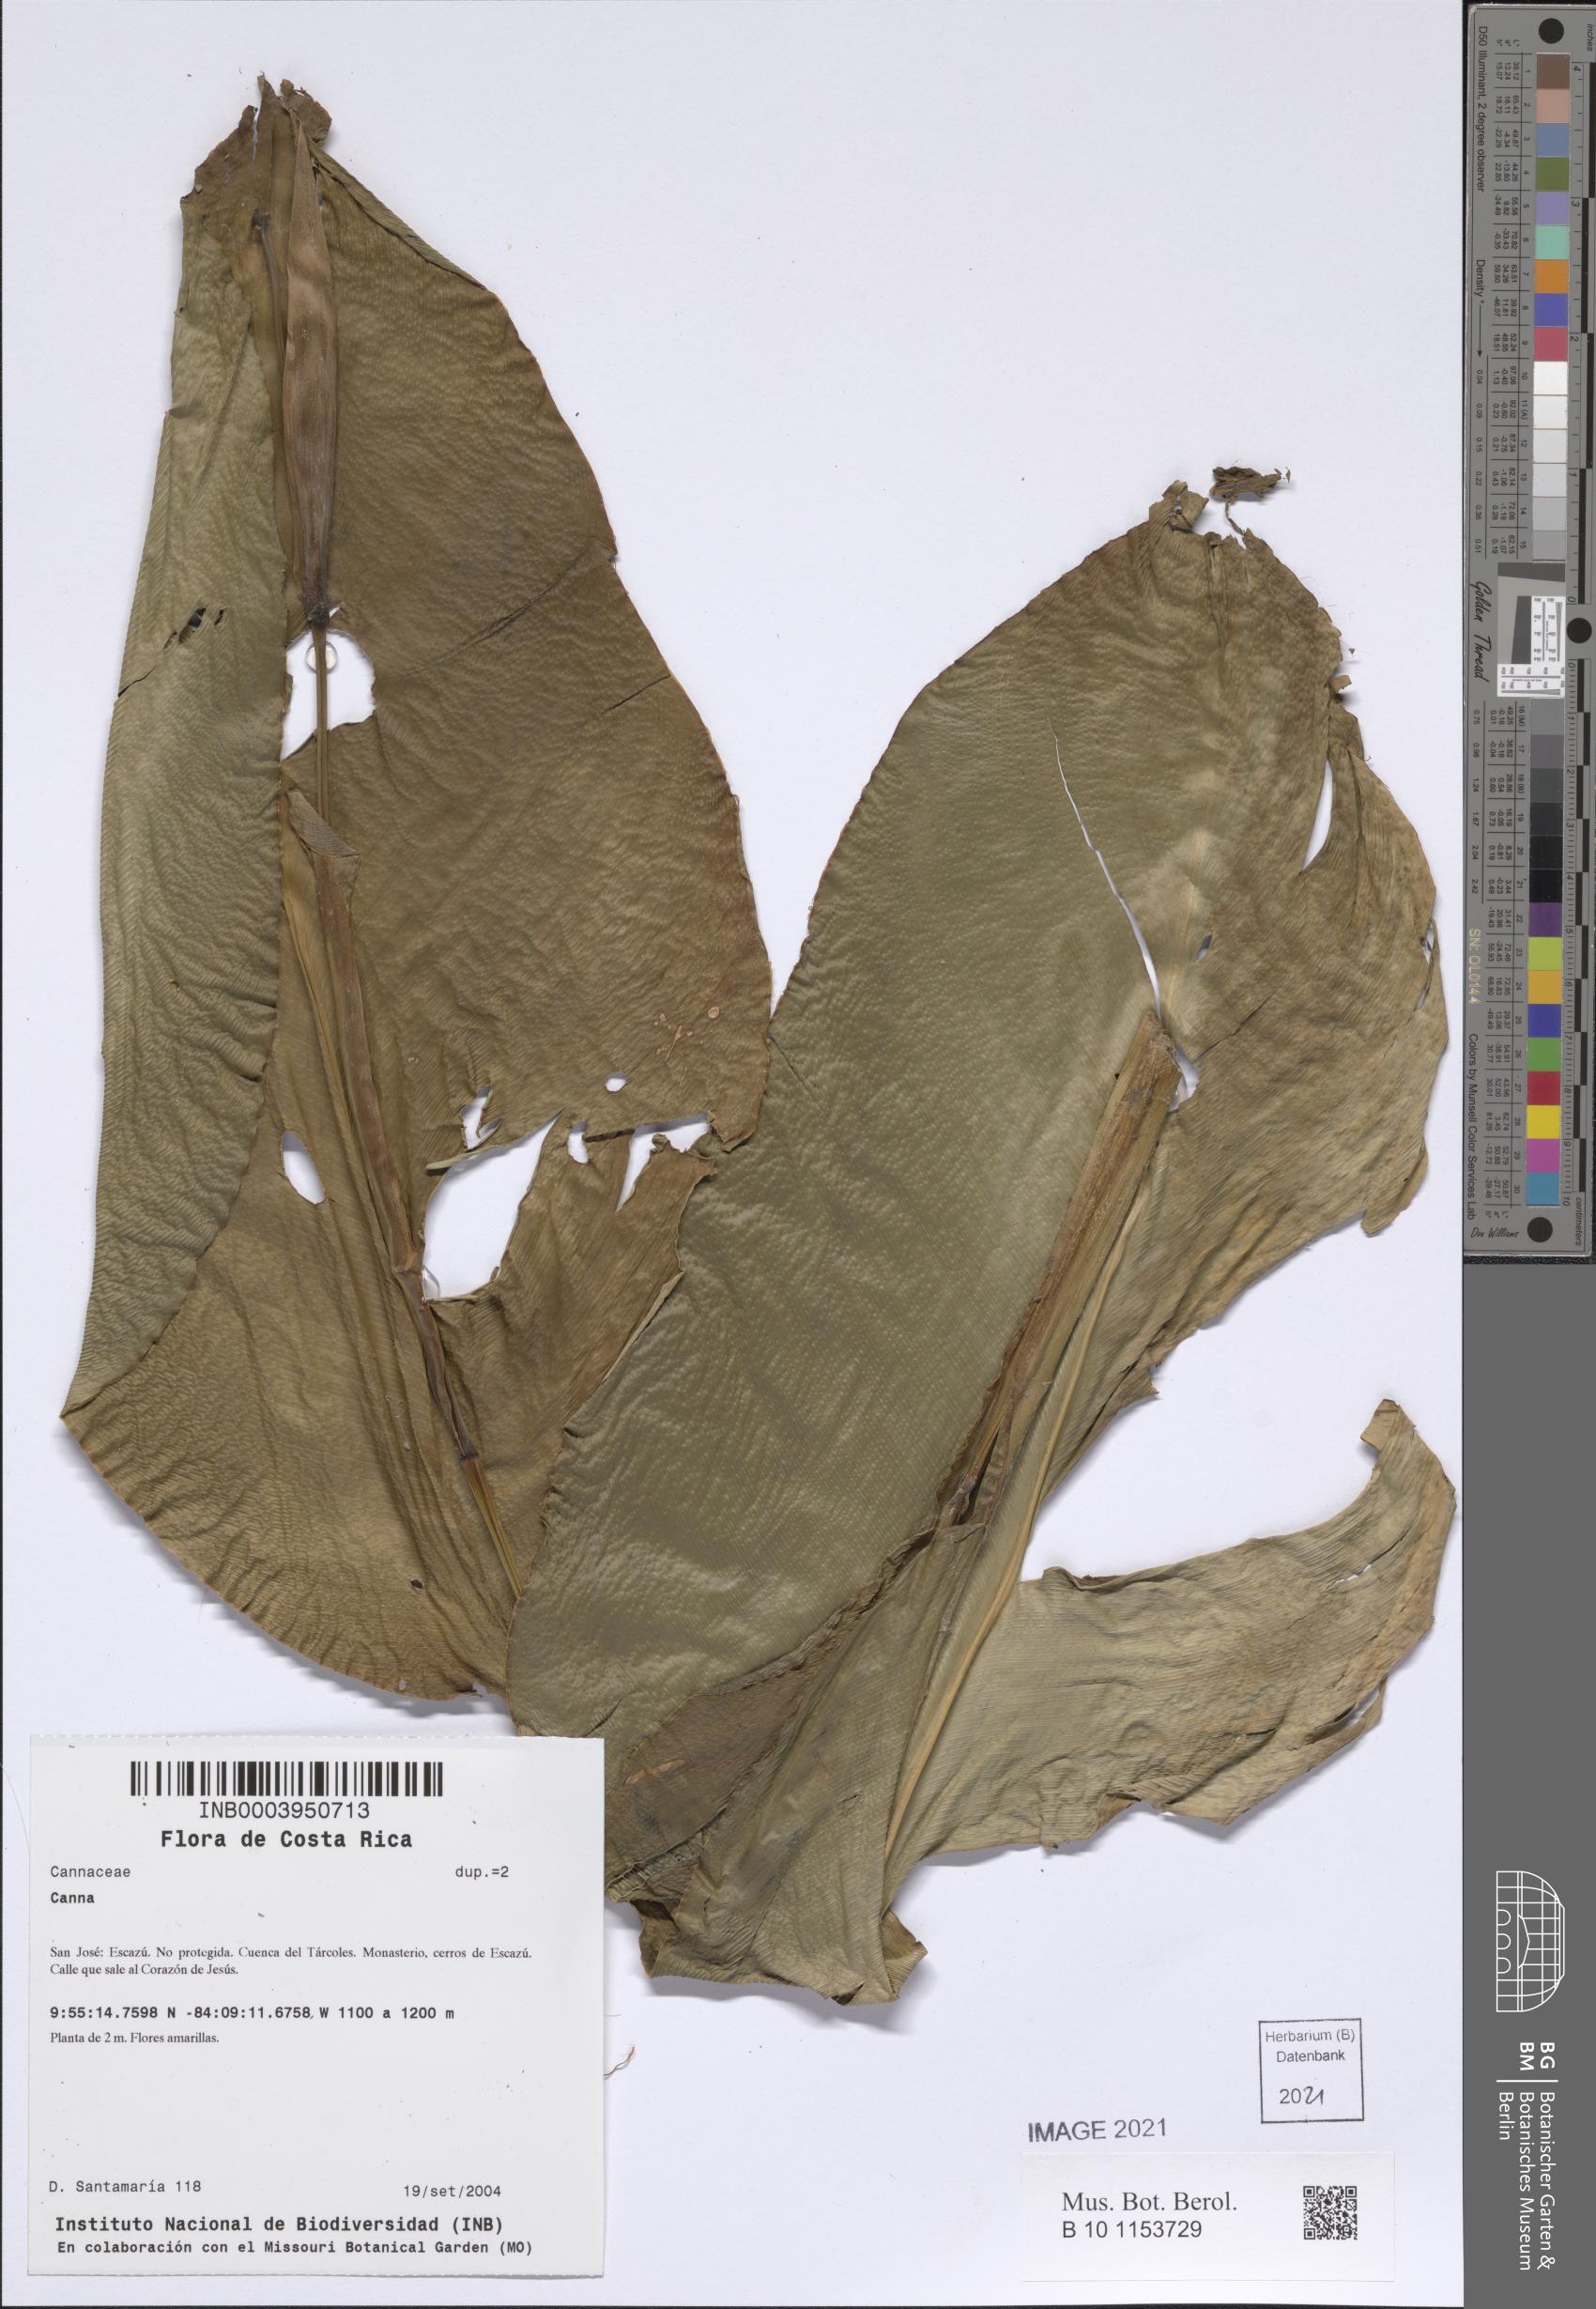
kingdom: Plantae
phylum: Tracheophyta
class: Liliopsida
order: Zingiberales
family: Cannaceae
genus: Canna
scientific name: Canna
